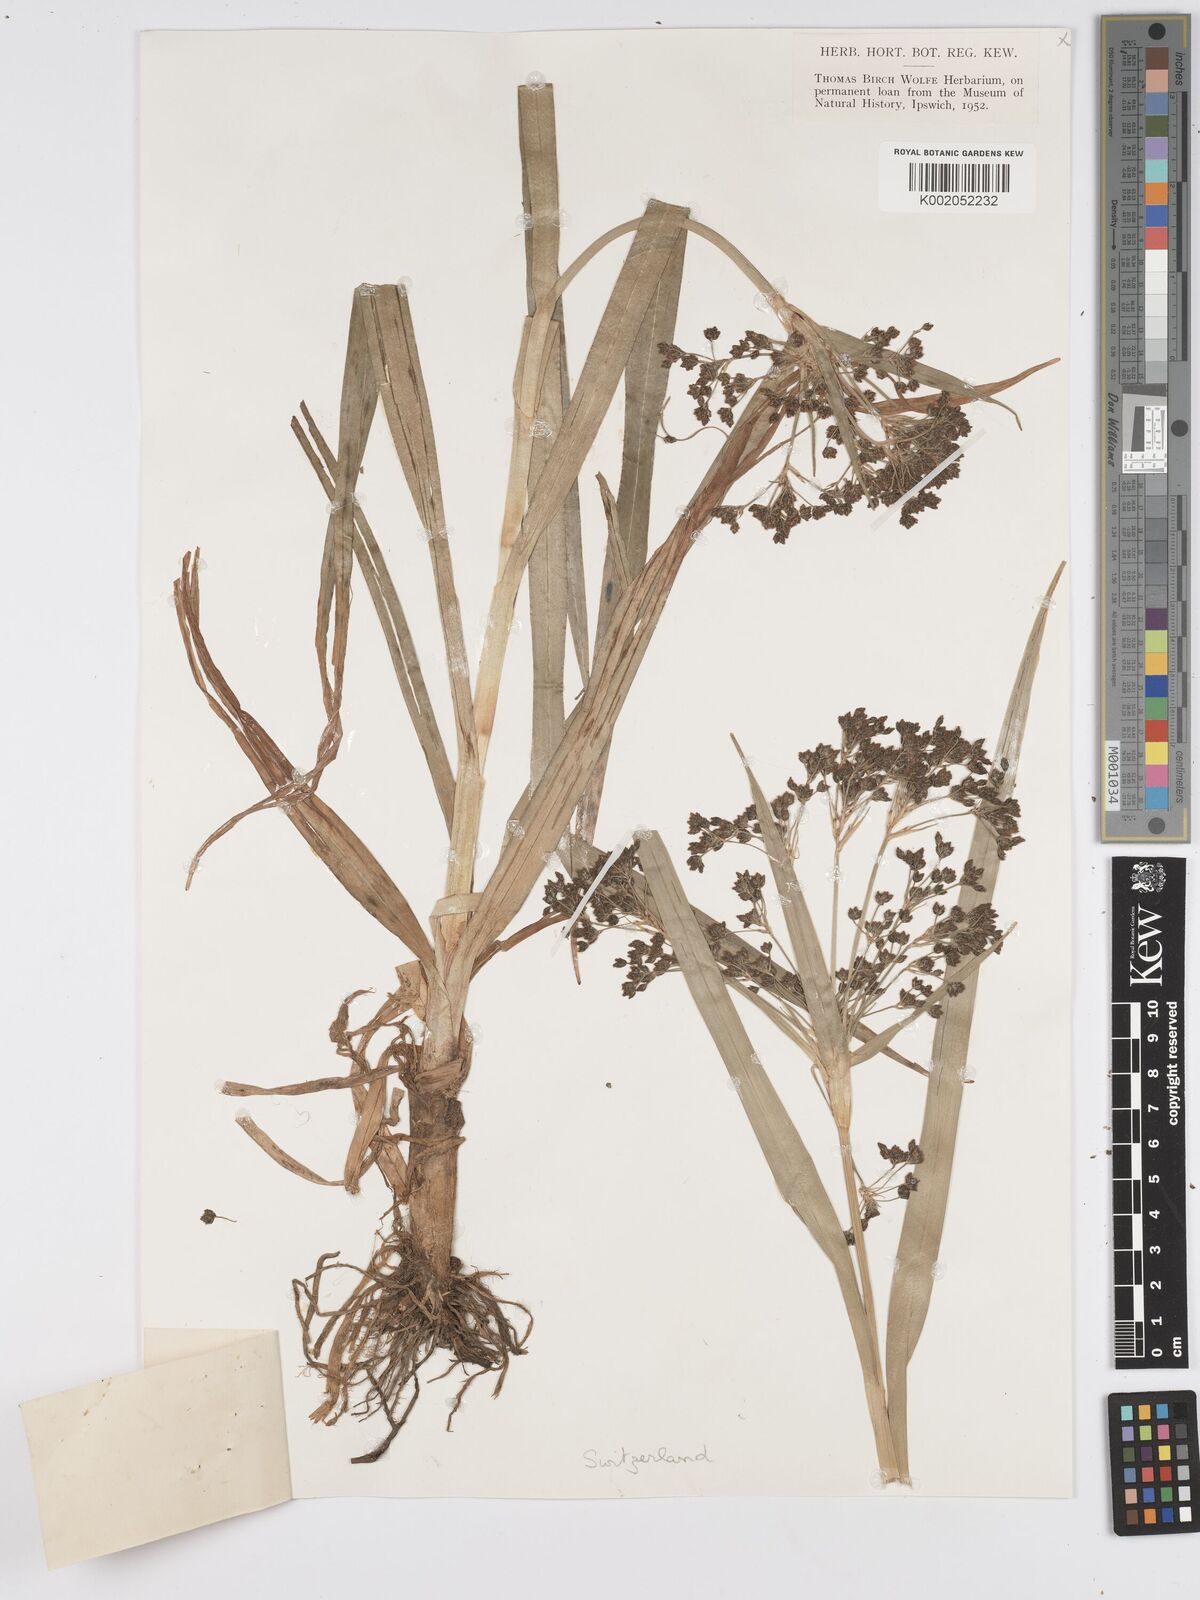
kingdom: Plantae
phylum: Tracheophyta
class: Liliopsida
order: Poales
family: Cyperaceae
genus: Scirpus
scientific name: Scirpus sylvaticus
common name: Wood club-rush
